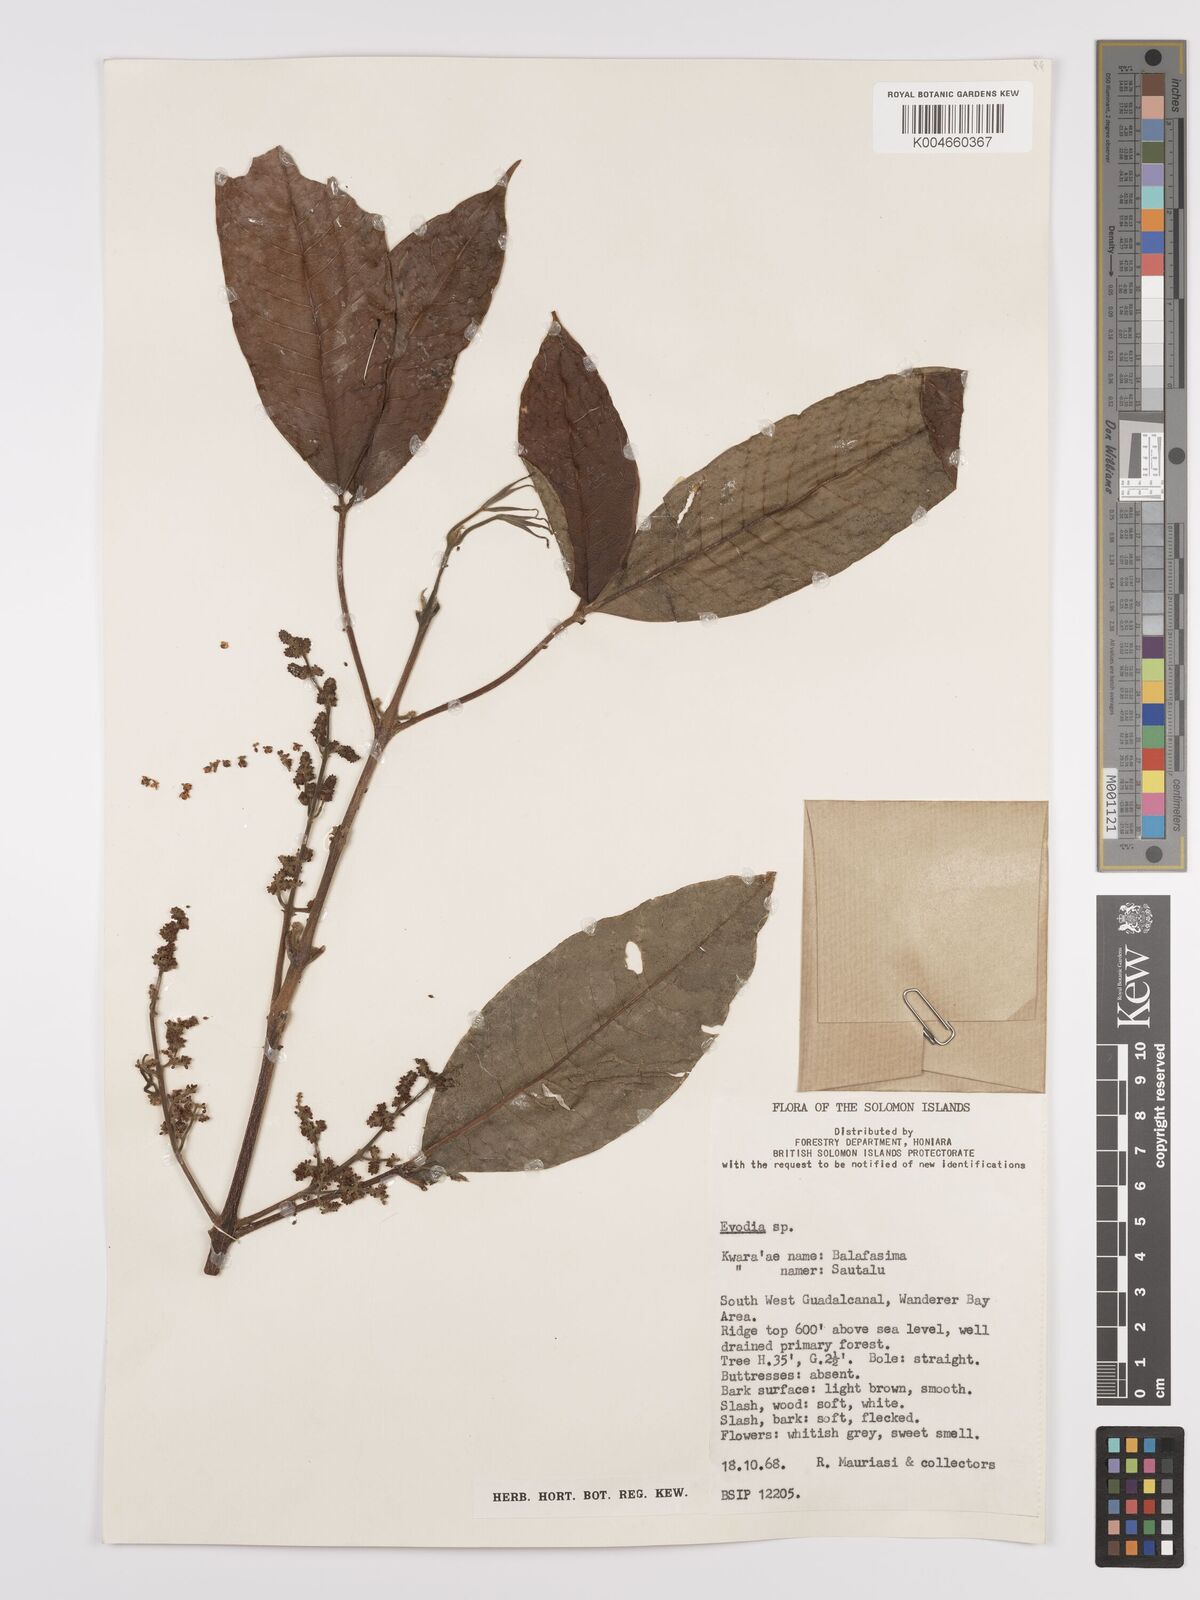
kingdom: Plantae
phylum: Tracheophyta
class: Magnoliopsida
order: Sapindales
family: Rutaceae
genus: Euodia
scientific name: Euodia
